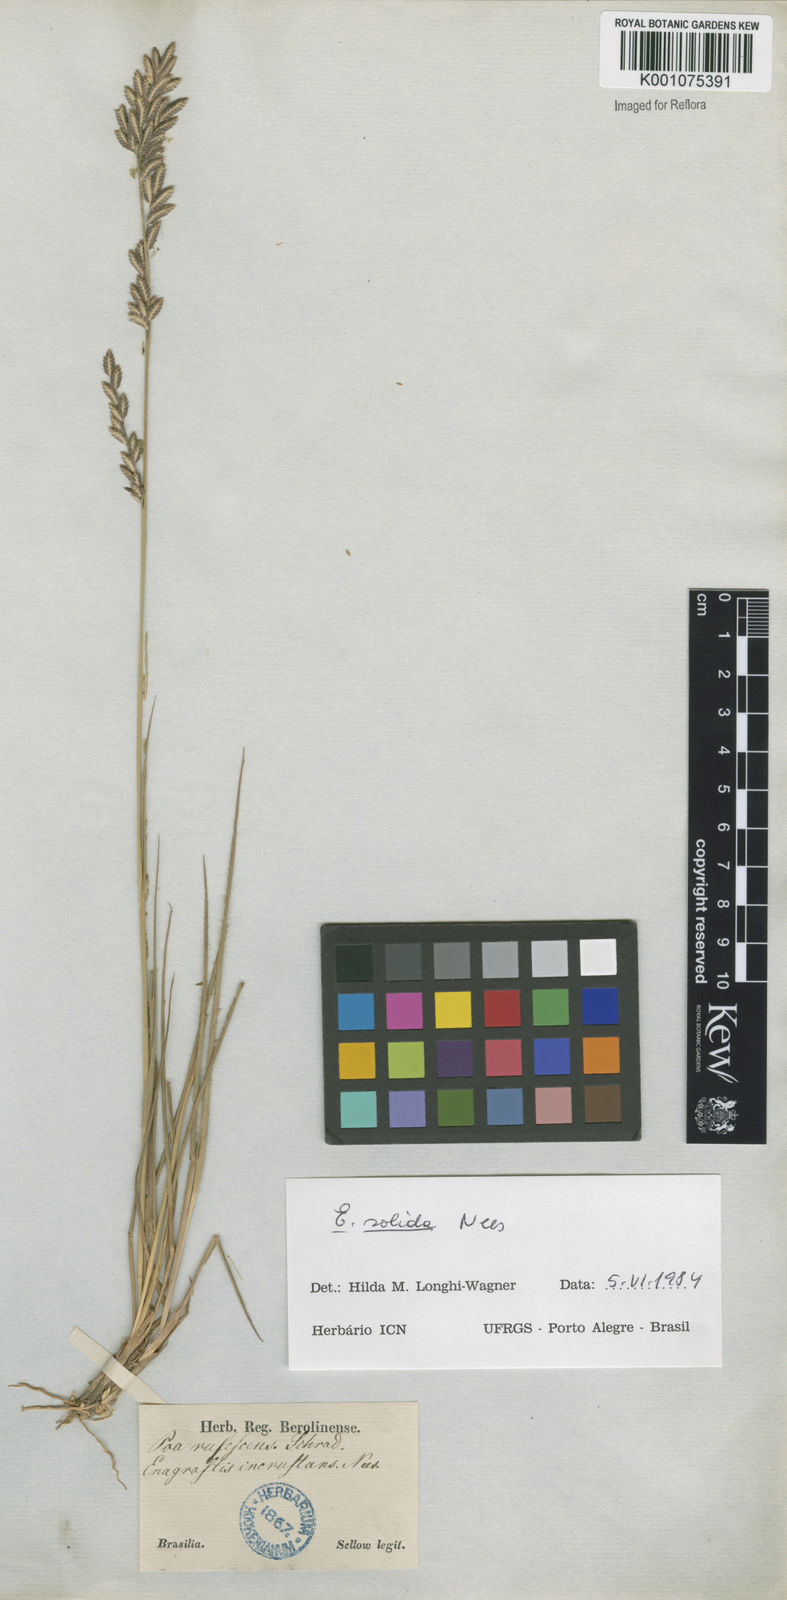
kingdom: Plantae
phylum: Tracheophyta
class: Liliopsida
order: Poales
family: Poaceae
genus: Eragrostis
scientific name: Eragrostis solida
